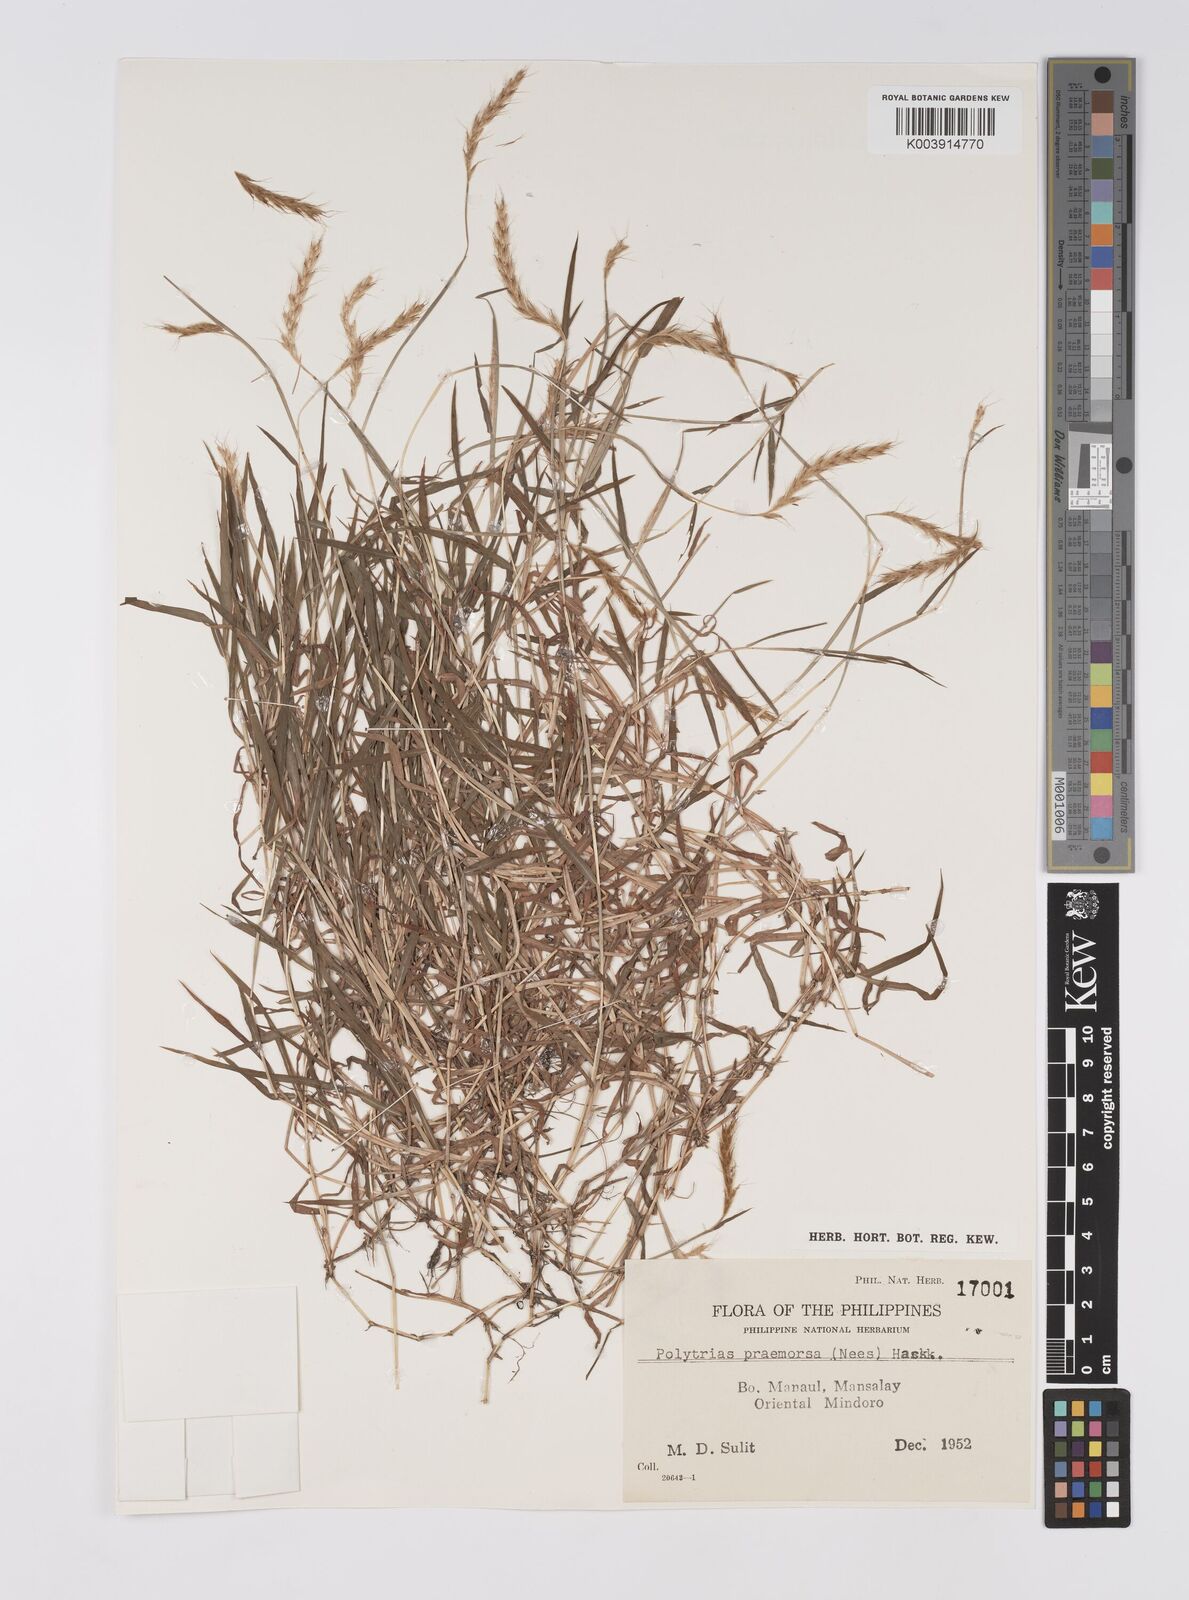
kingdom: Plantae
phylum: Tracheophyta
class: Liliopsida
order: Poales
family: Poaceae
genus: Polytrias
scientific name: Polytrias indica
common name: Indian murainagrass
